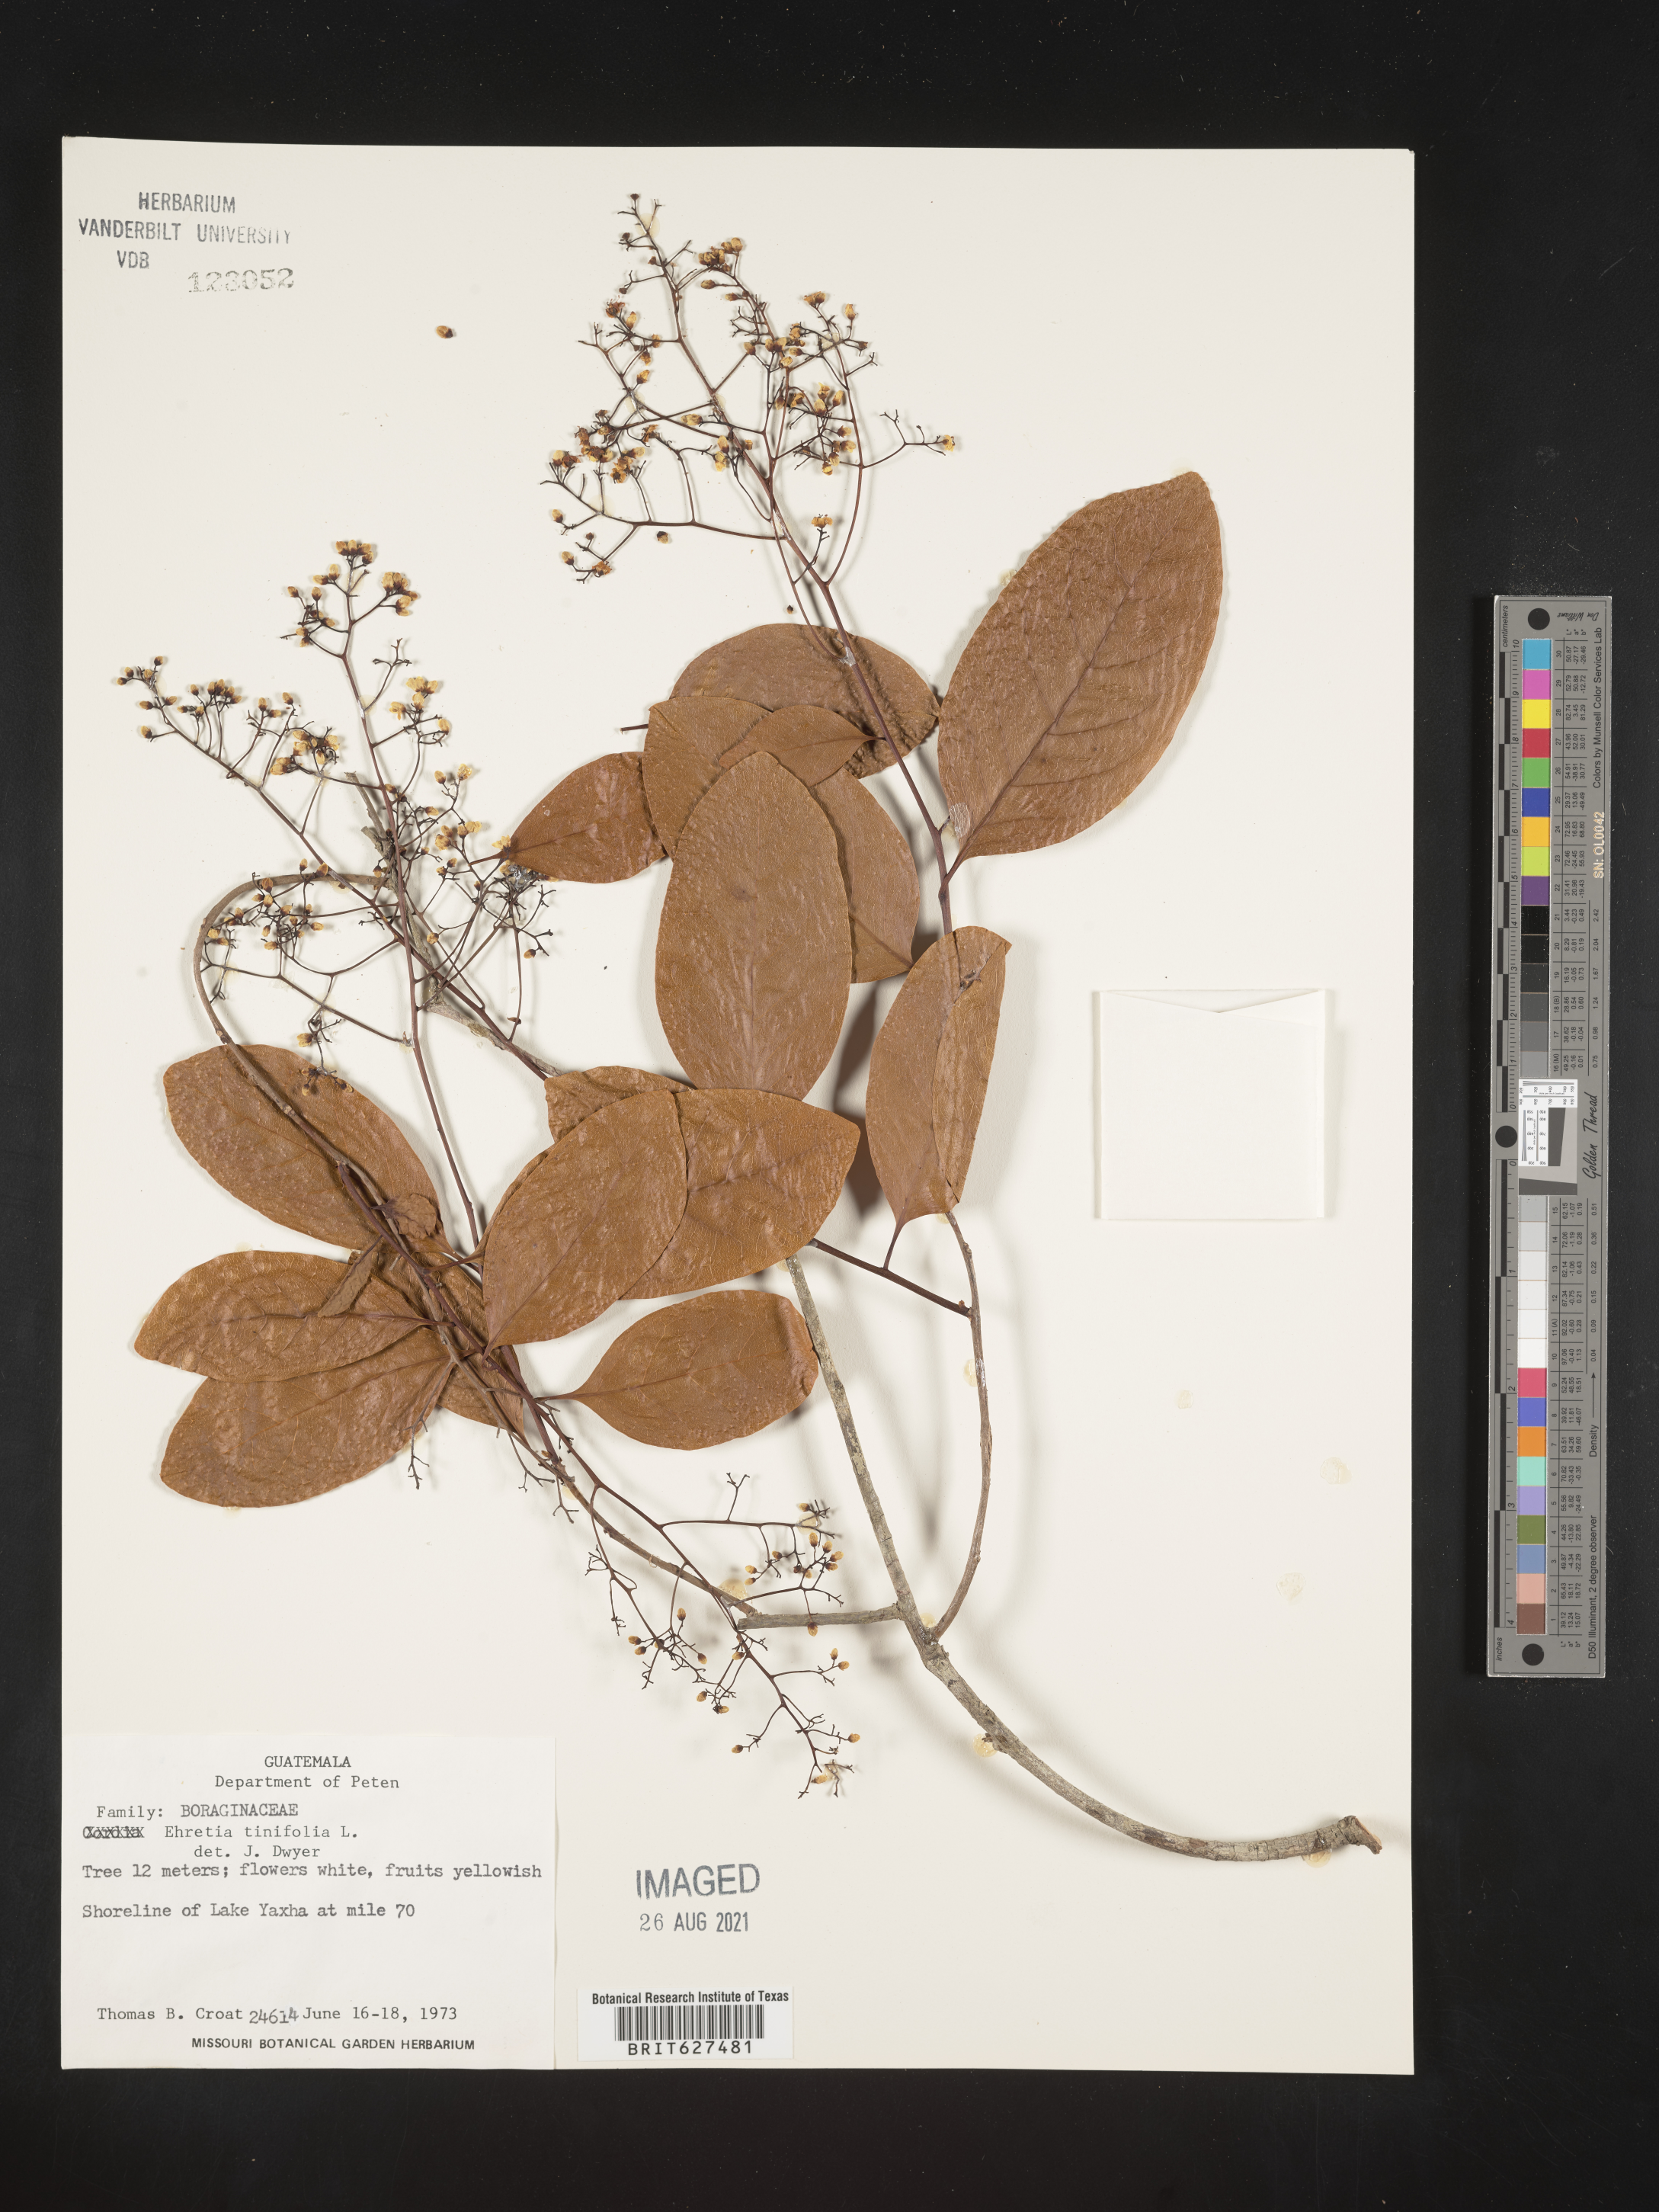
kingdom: Plantae
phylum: Tracheophyta
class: Magnoliopsida
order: Boraginales
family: Ehretiaceae
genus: Ehretia
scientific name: Ehretia tinifolia
